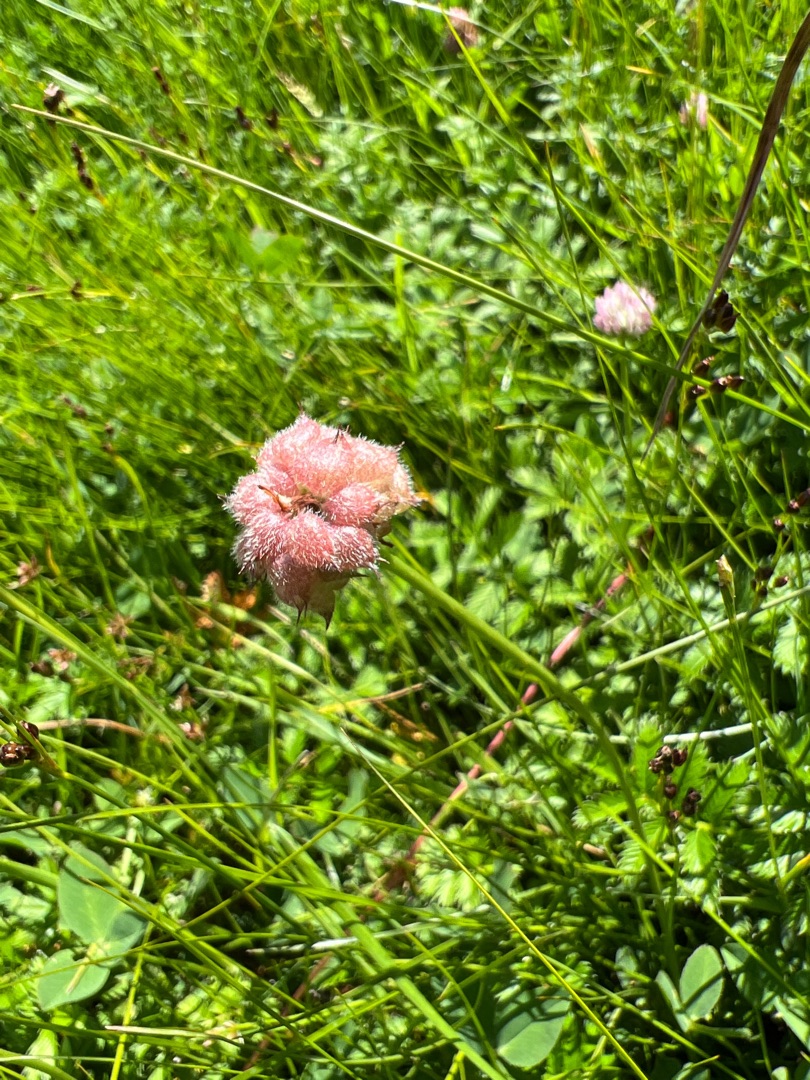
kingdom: Plantae
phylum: Tracheophyta
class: Magnoliopsida
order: Fabales
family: Fabaceae
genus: Trifolium
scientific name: Trifolium fragiferum
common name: Jordbær-kløver
